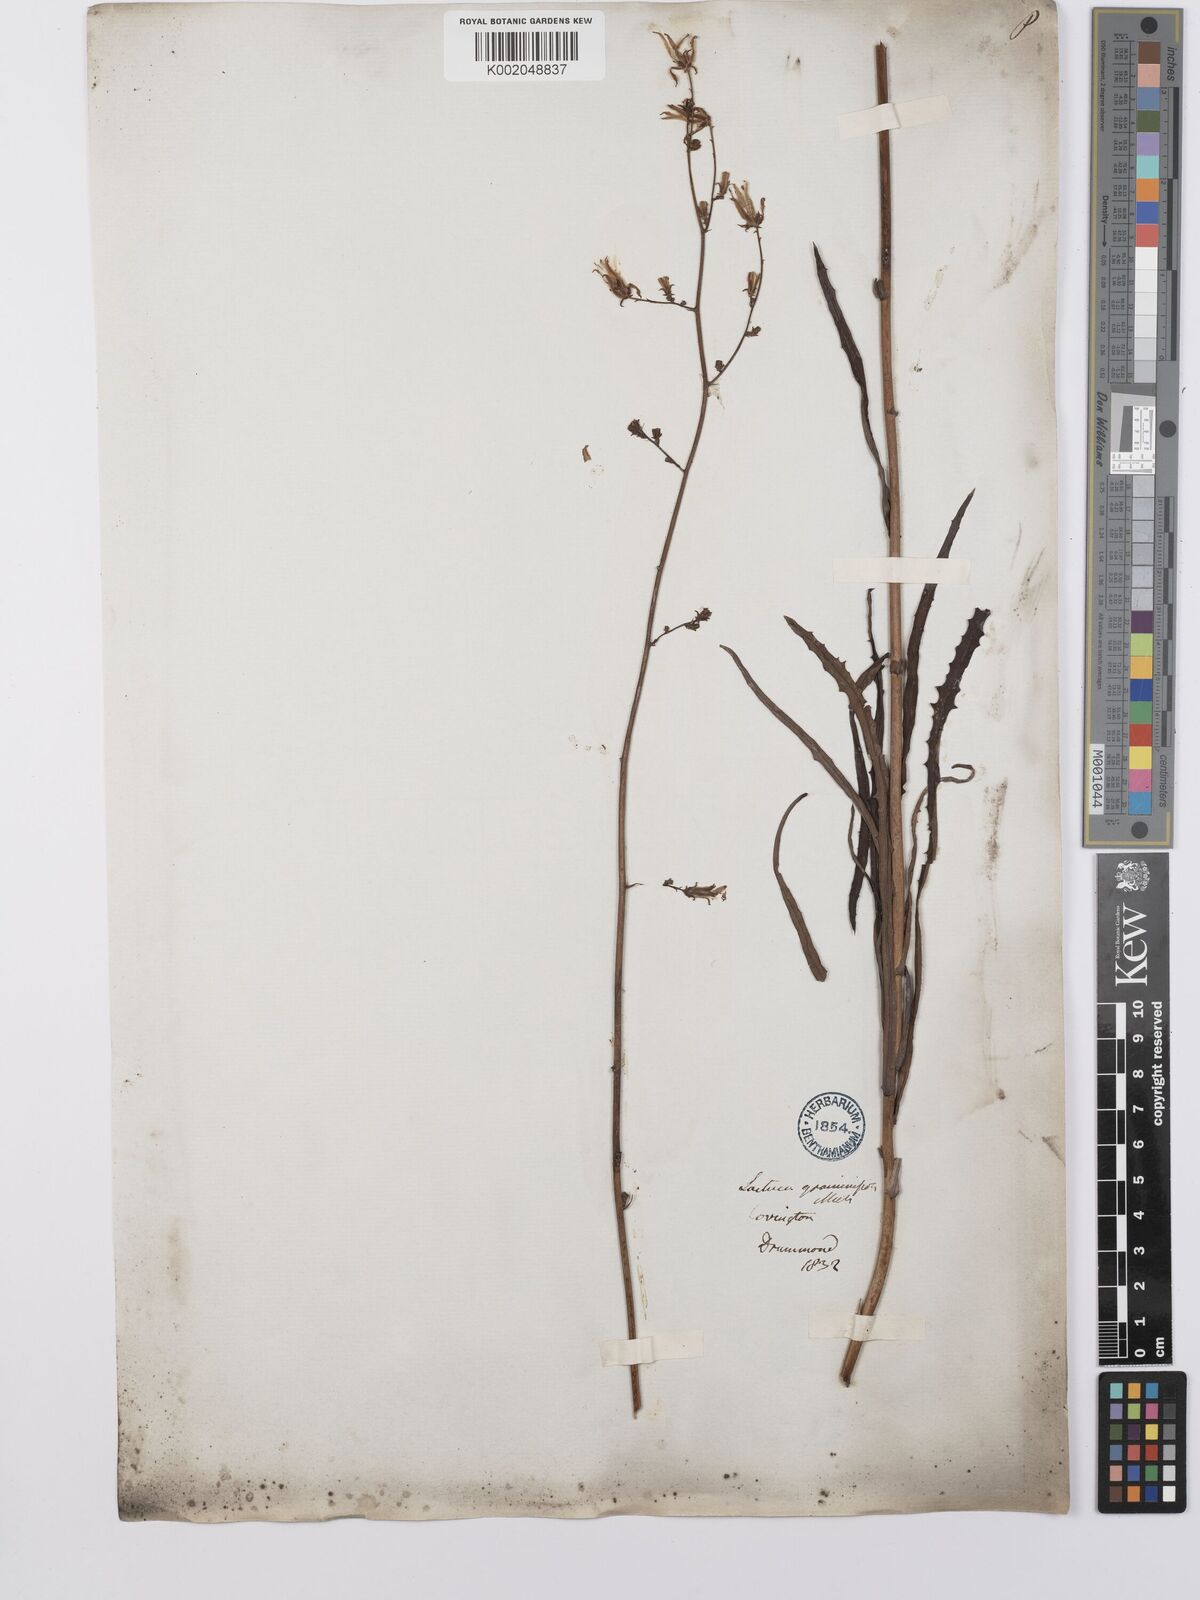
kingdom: Plantae
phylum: Tracheophyta
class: Magnoliopsida
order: Asterales
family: Asteraceae
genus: Lactuca
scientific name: Lactuca canadensis
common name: Canada lettuce
